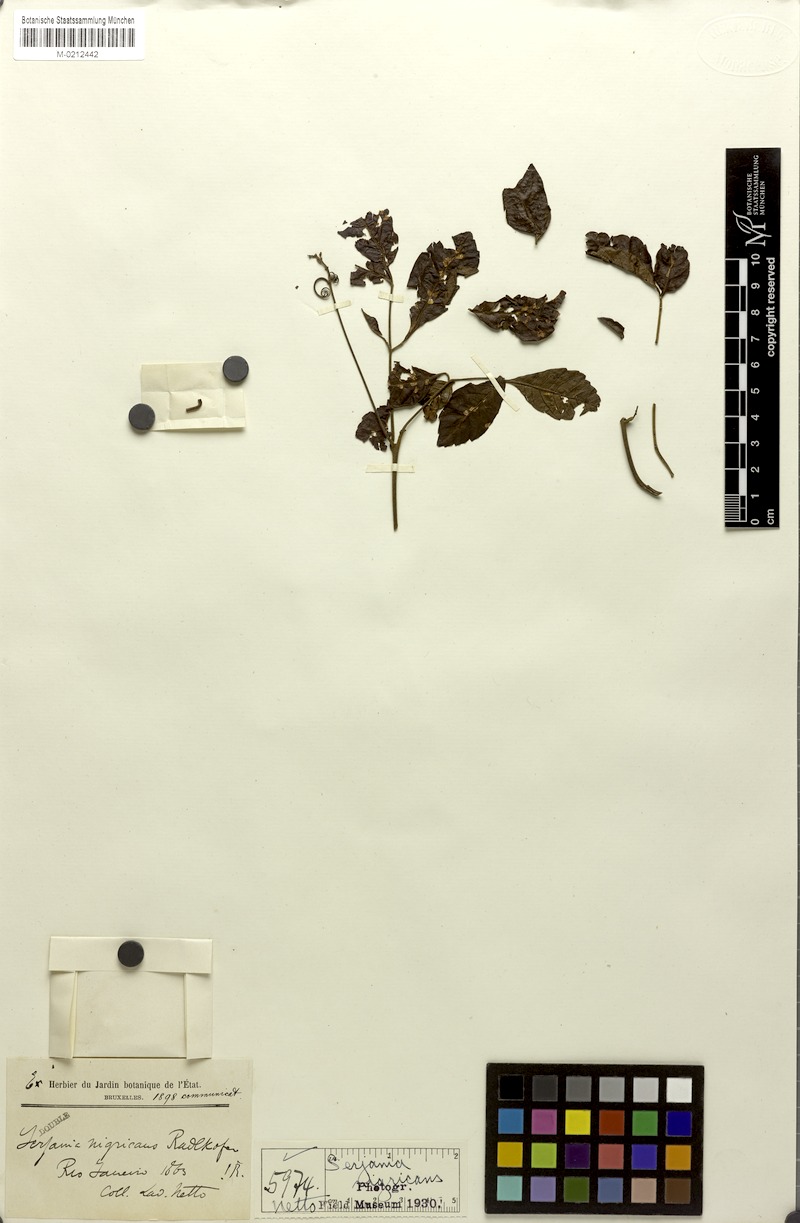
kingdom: Plantae
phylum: Tracheophyta
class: Magnoliopsida
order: Sapindales
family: Sapindaceae
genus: Serjania
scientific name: Serjania nigricans
